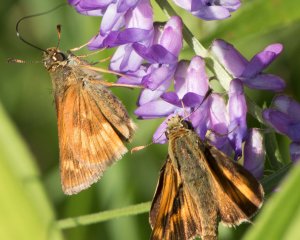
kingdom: Animalia
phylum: Arthropoda
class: Insecta
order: Lepidoptera
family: Hesperiidae
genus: Polites
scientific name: Polites
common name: Long Dash Skipper
